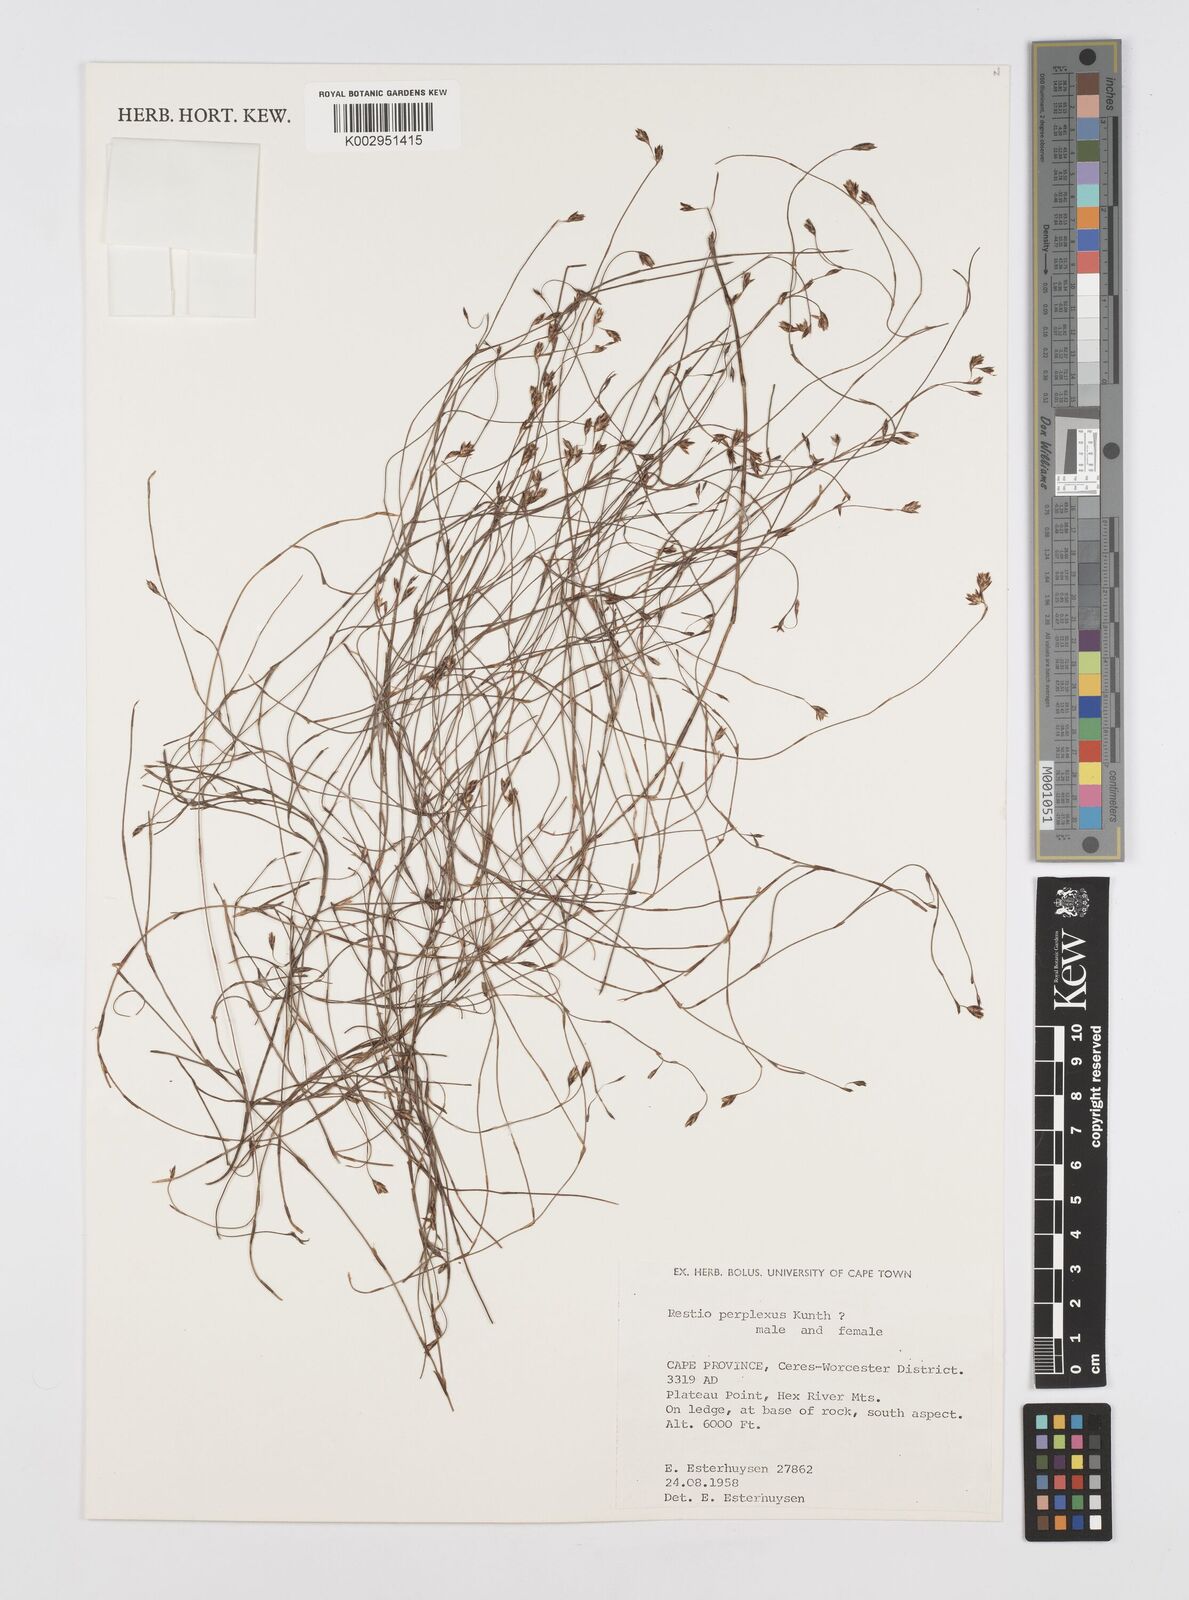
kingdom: Plantae
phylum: Tracheophyta
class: Liliopsida
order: Poales
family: Restionaceae
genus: Restio
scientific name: Restio perplexus
